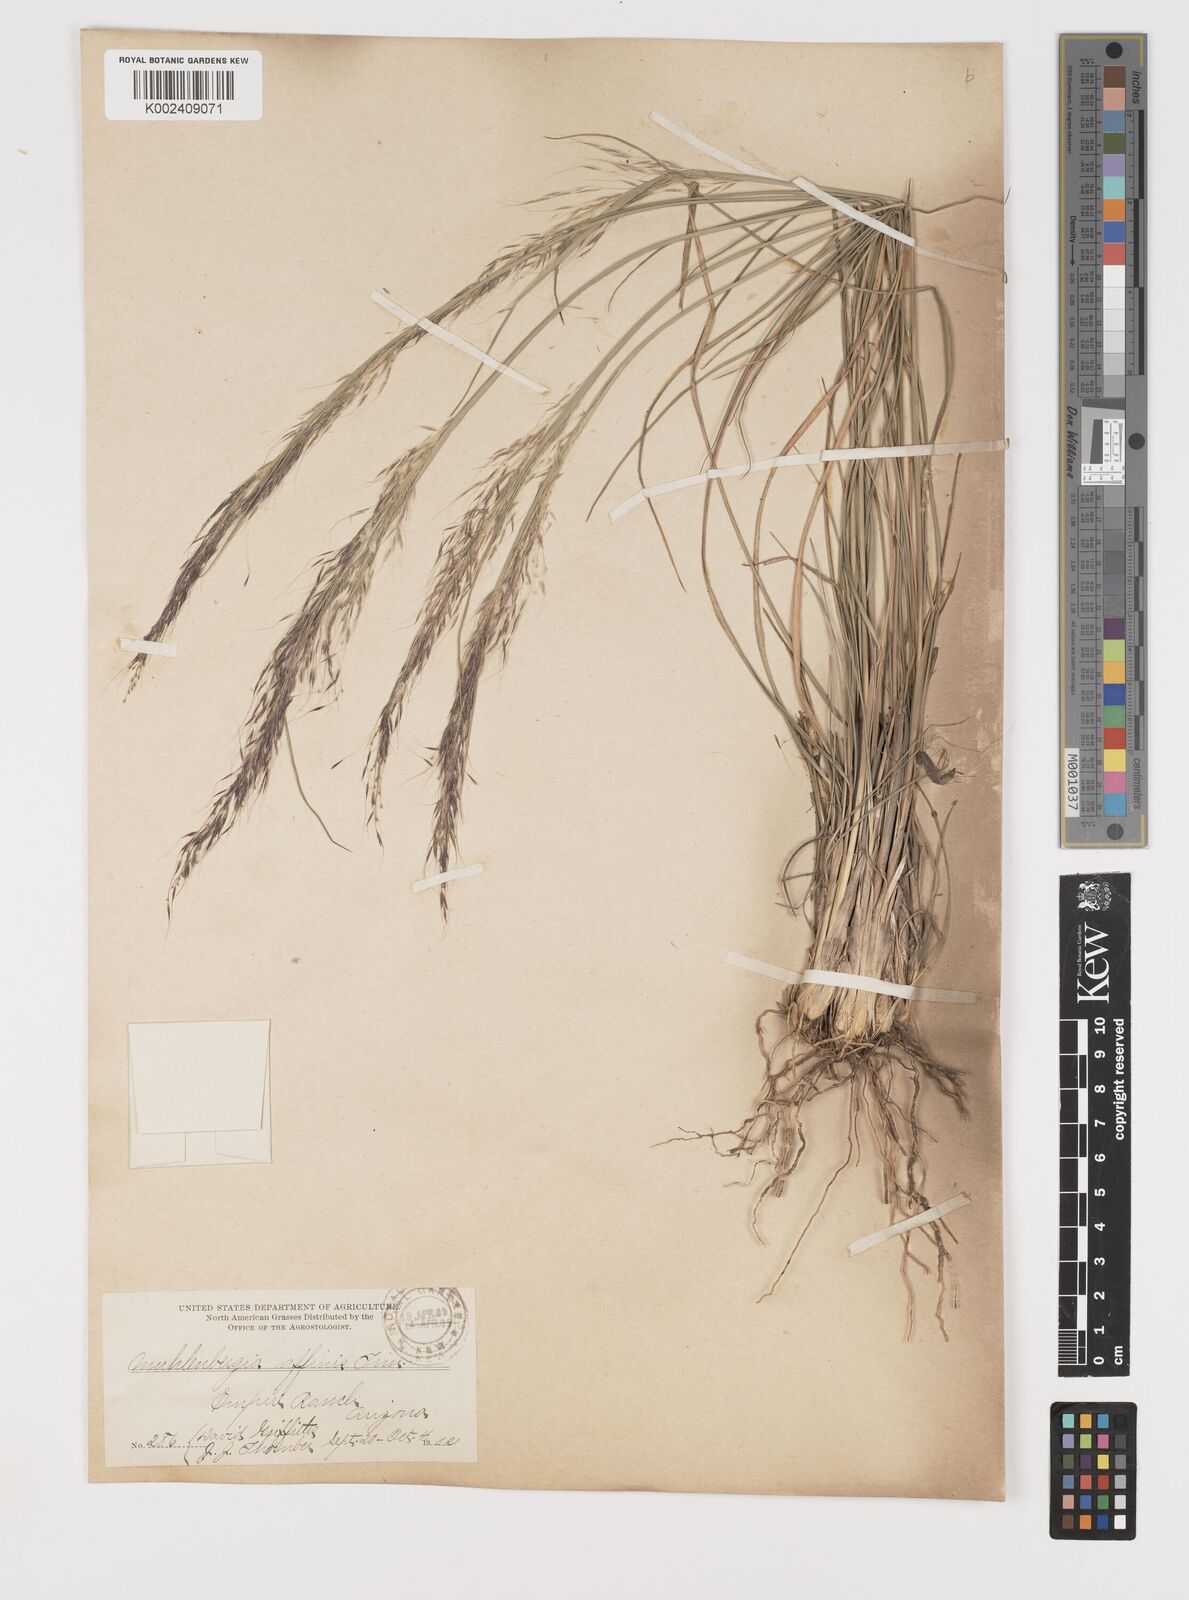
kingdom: Plantae
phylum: Tracheophyta
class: Liliopsida
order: Poales
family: Poaceae
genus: Muhlenbergia
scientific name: Muhlenbergia rigida
